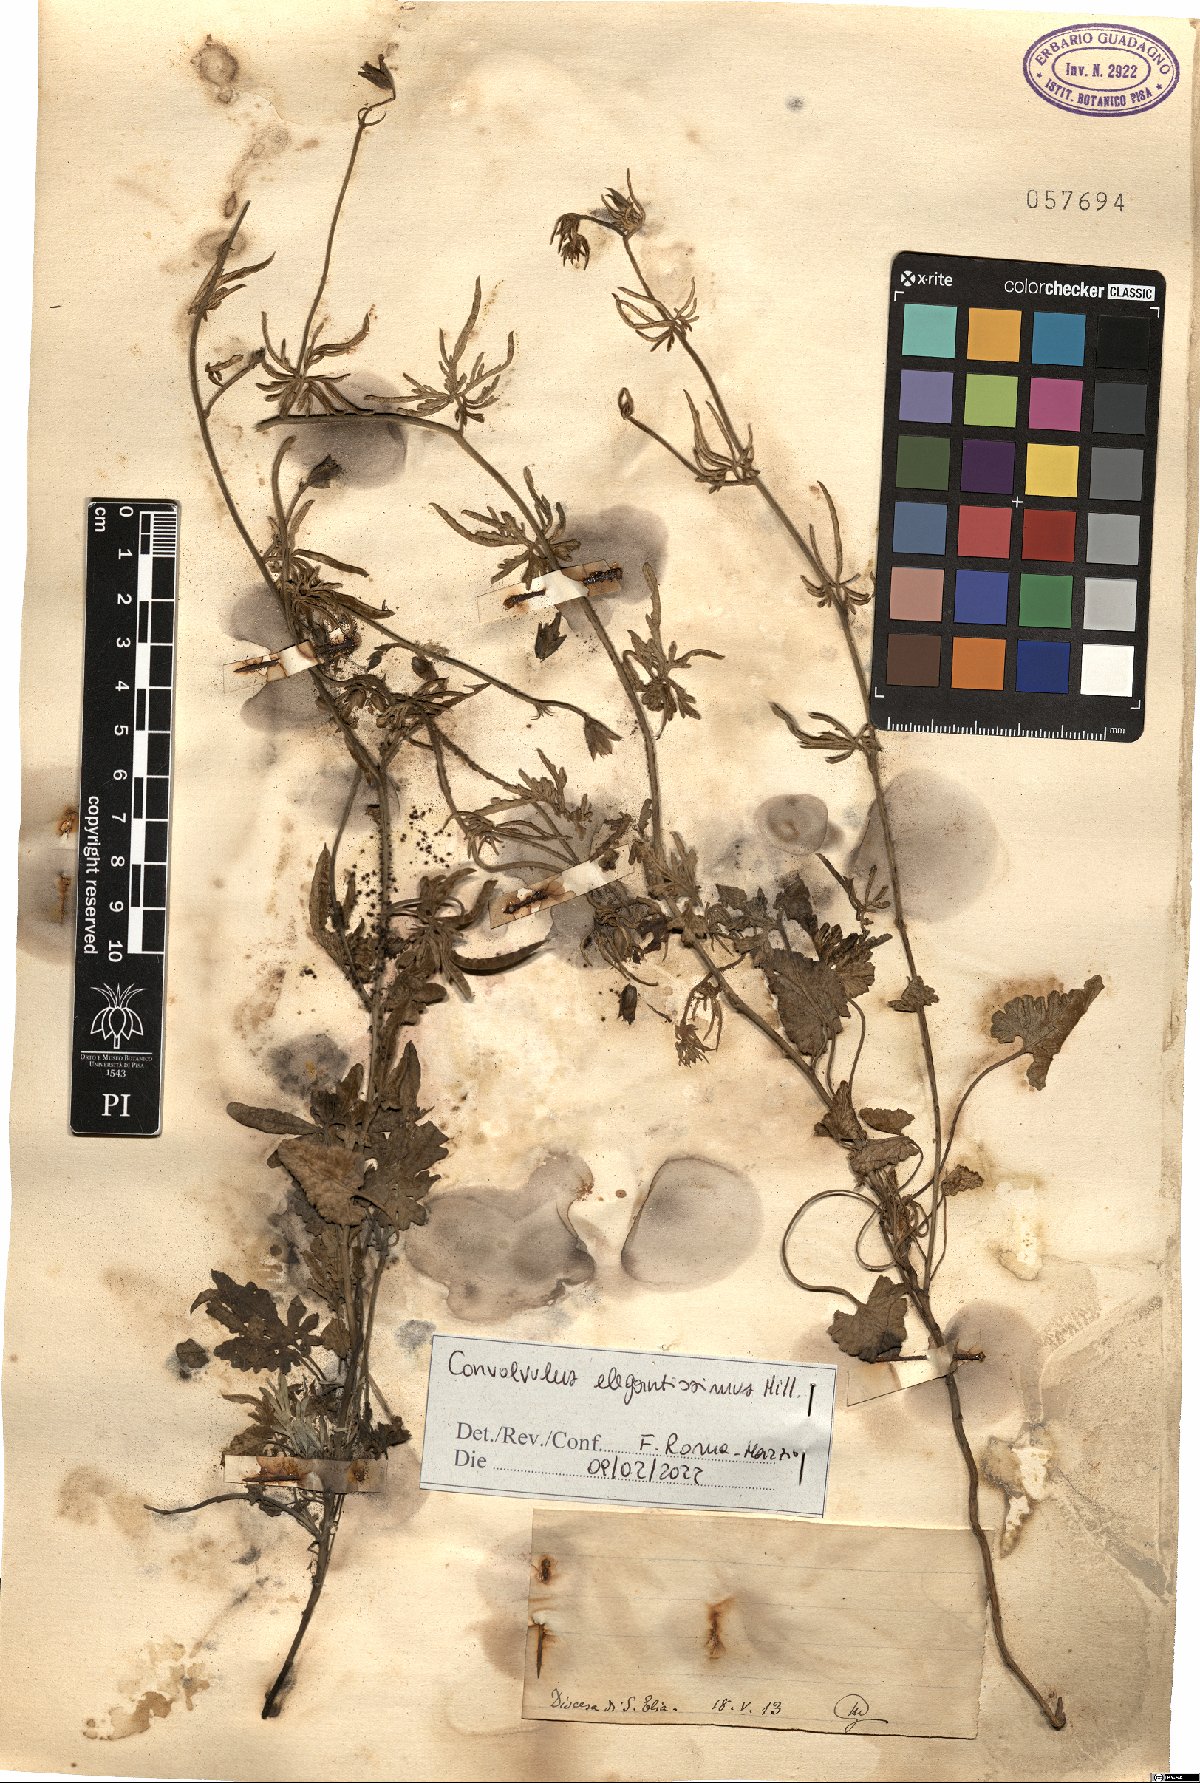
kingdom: Plantae
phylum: Tracheophyta
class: Magnoliopsida
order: Solanales
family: Convolvulaceae
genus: Convolvulus
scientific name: Convolvulus elegantissimus
